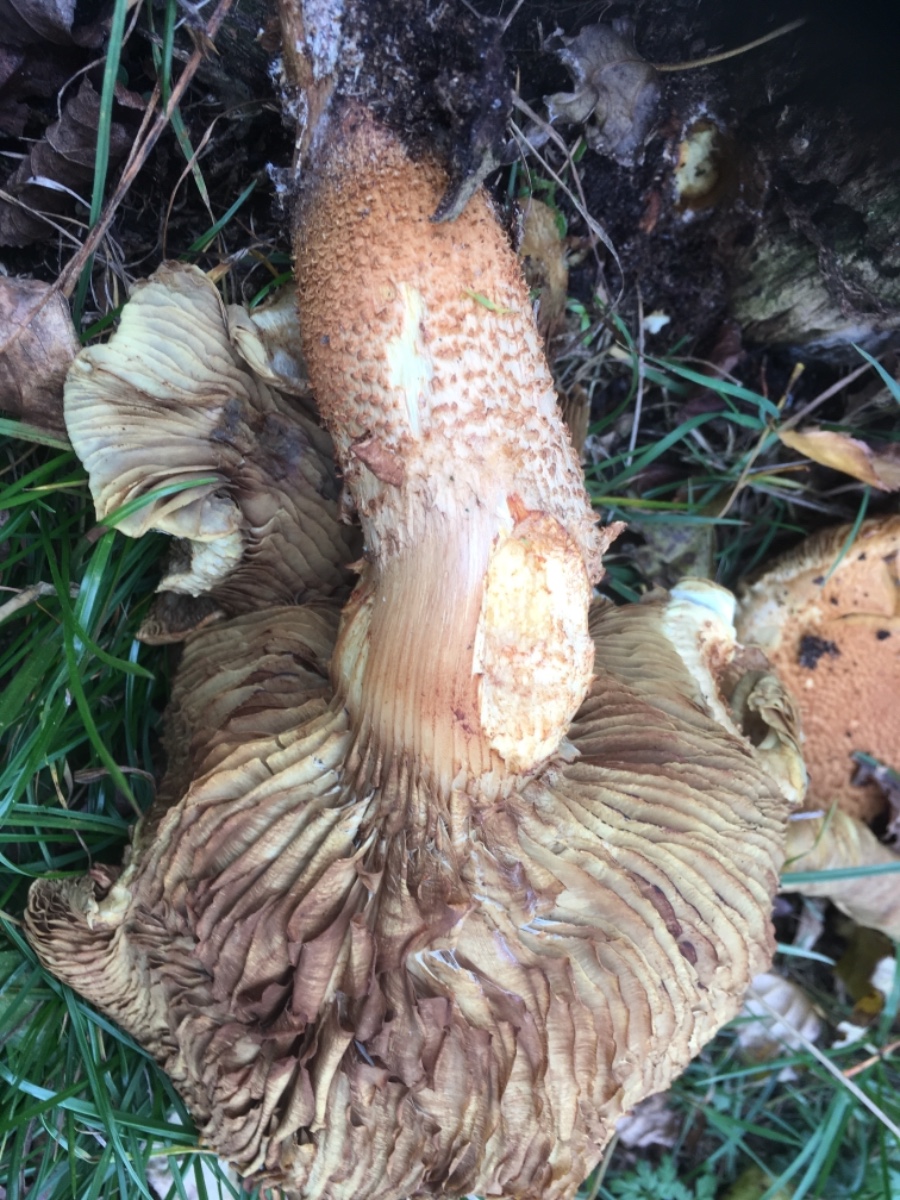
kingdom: Fungi
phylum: Basidiomycota
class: Agaricomycetes
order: Agaricales
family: Strophariaceae
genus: Pholiota
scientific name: Pholiota squarrosa
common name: krumskællet skælhat
